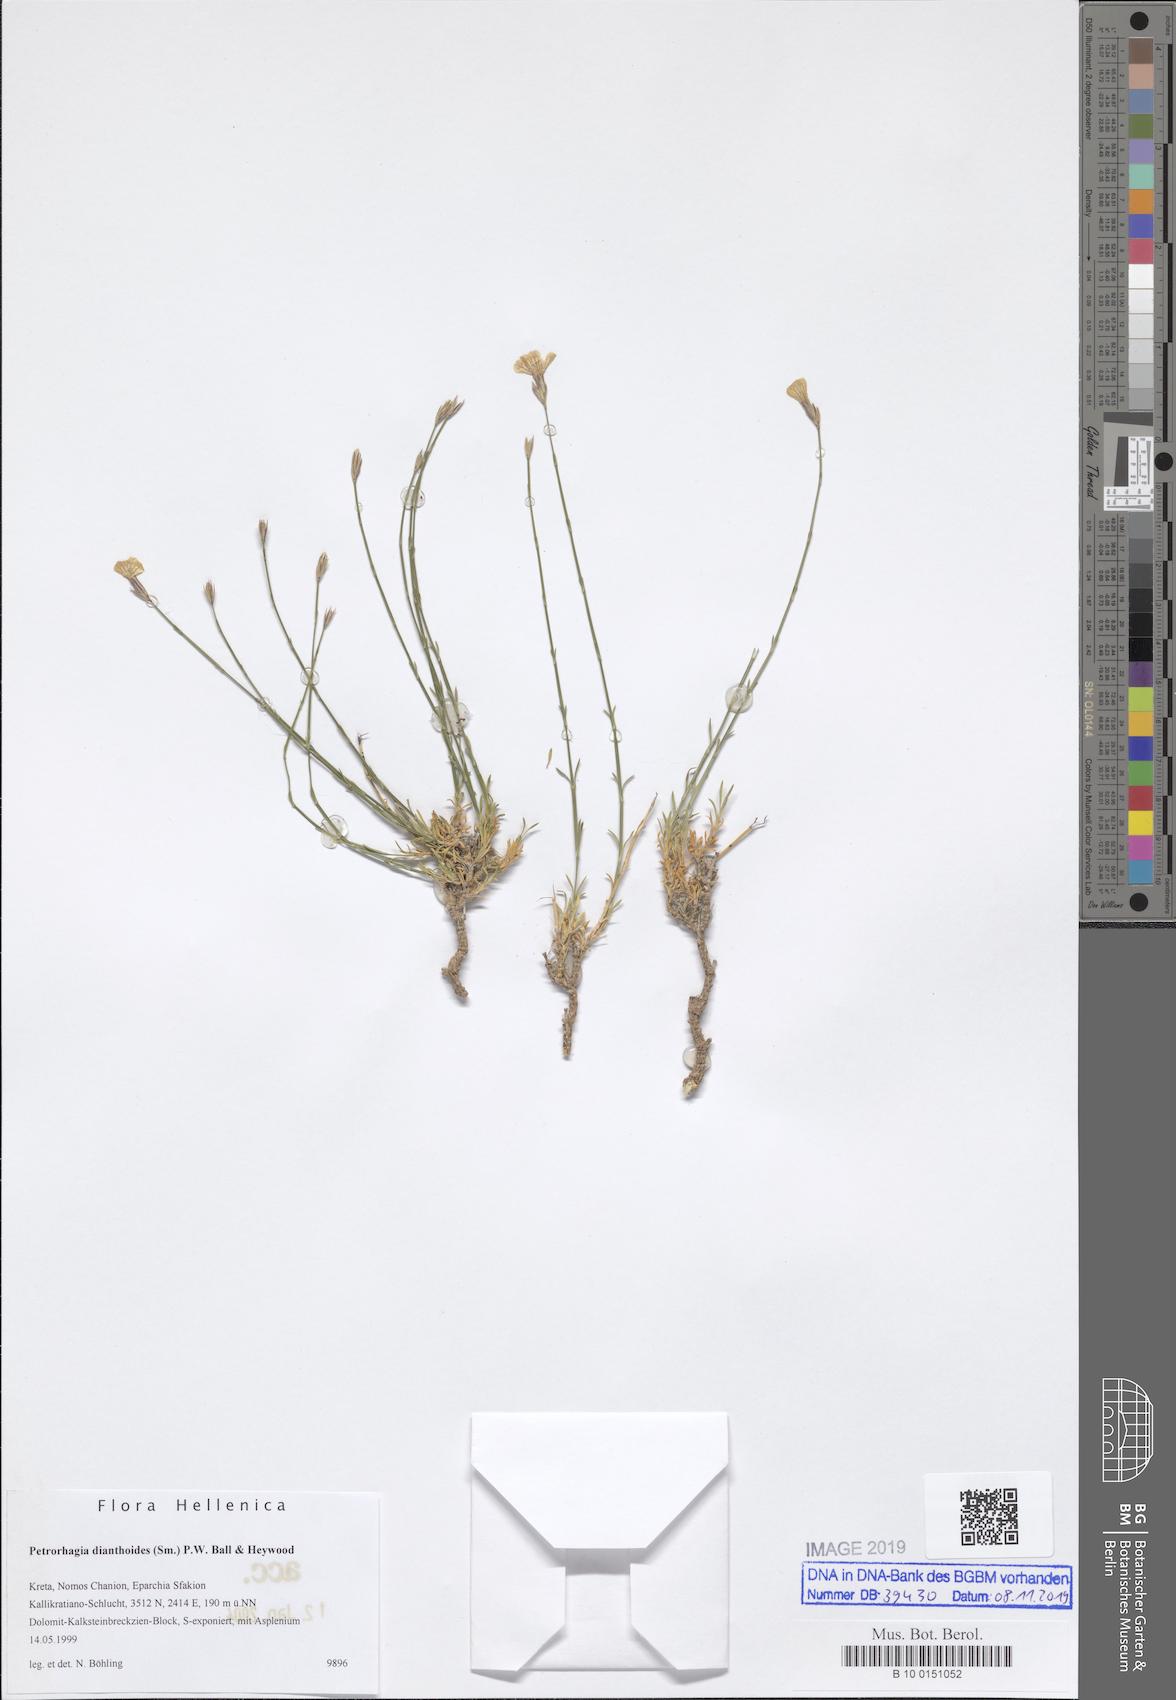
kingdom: Plantae
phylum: Tracheophyta
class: Magnoliopsida
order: Caryophyllales
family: Caryophyllaceae
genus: Petrorhagia
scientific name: Petrorhagia dianthoides
